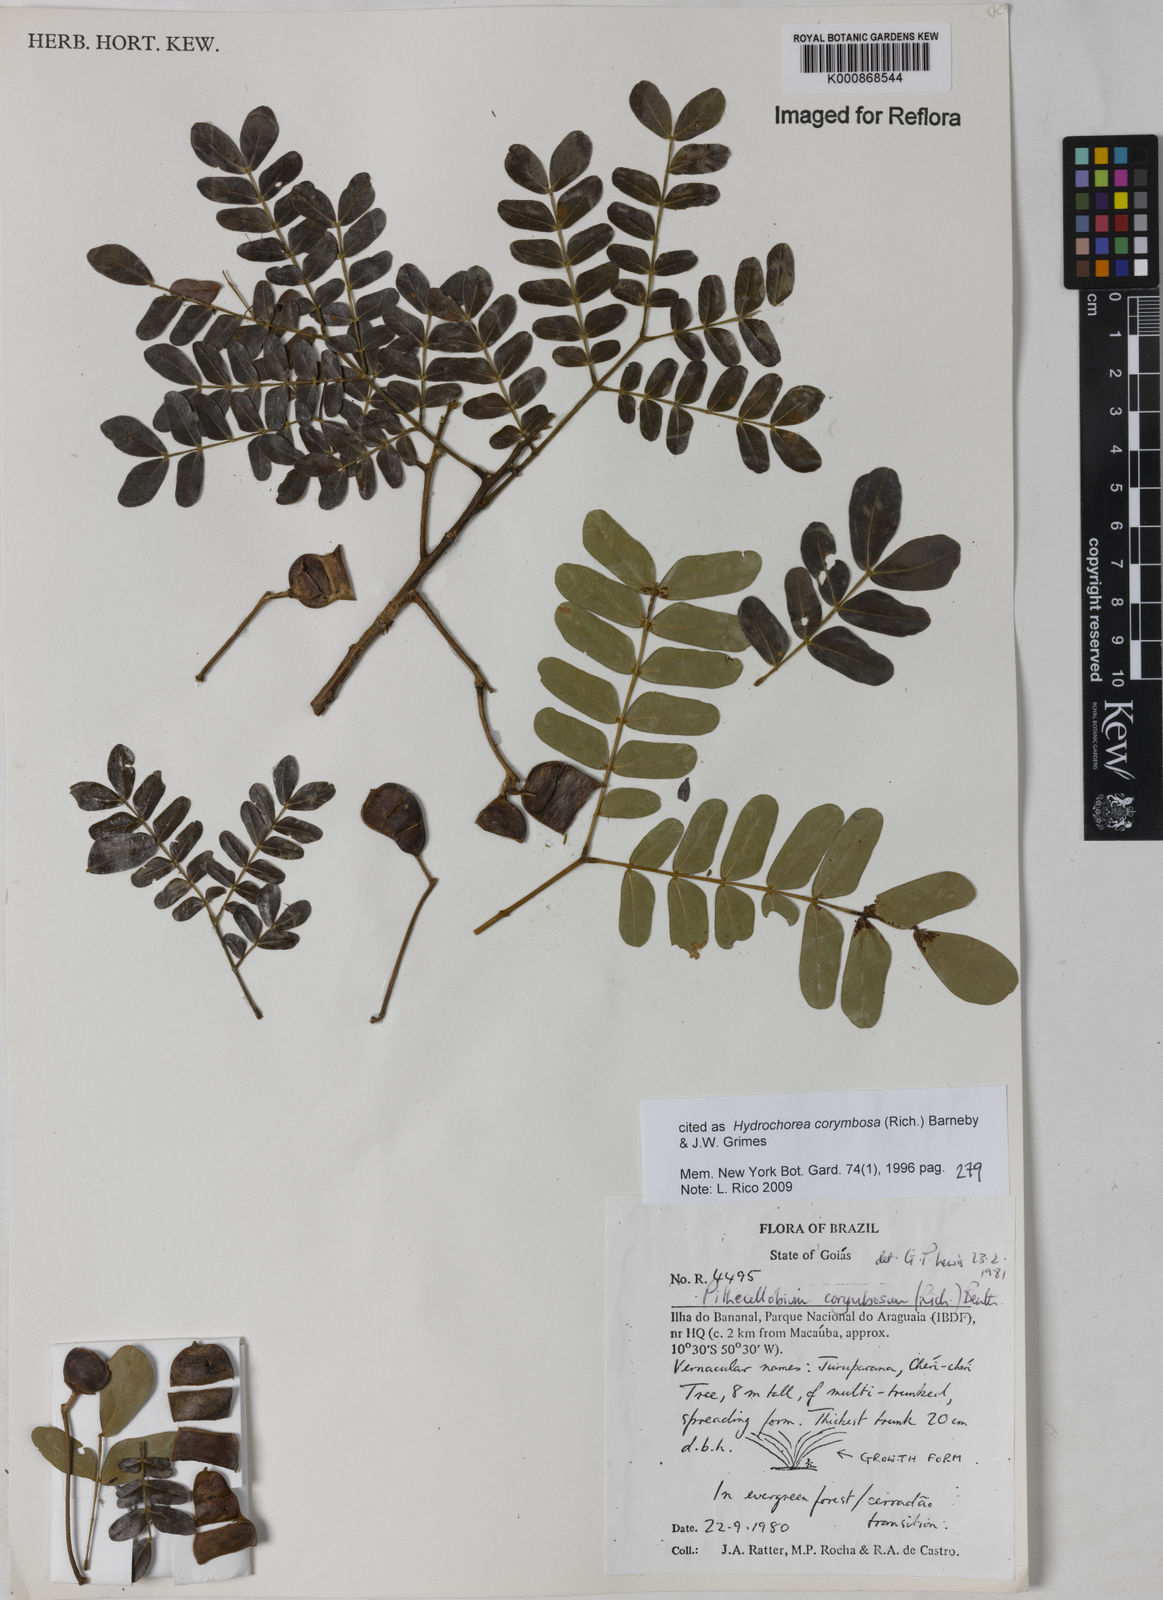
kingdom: Plantae
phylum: Tracheophyta
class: Magnoliopsida
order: Fabales
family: Fabaceae
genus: Hydrochorea
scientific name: Hydrochorea corymbosa
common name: Swamp manariballi
